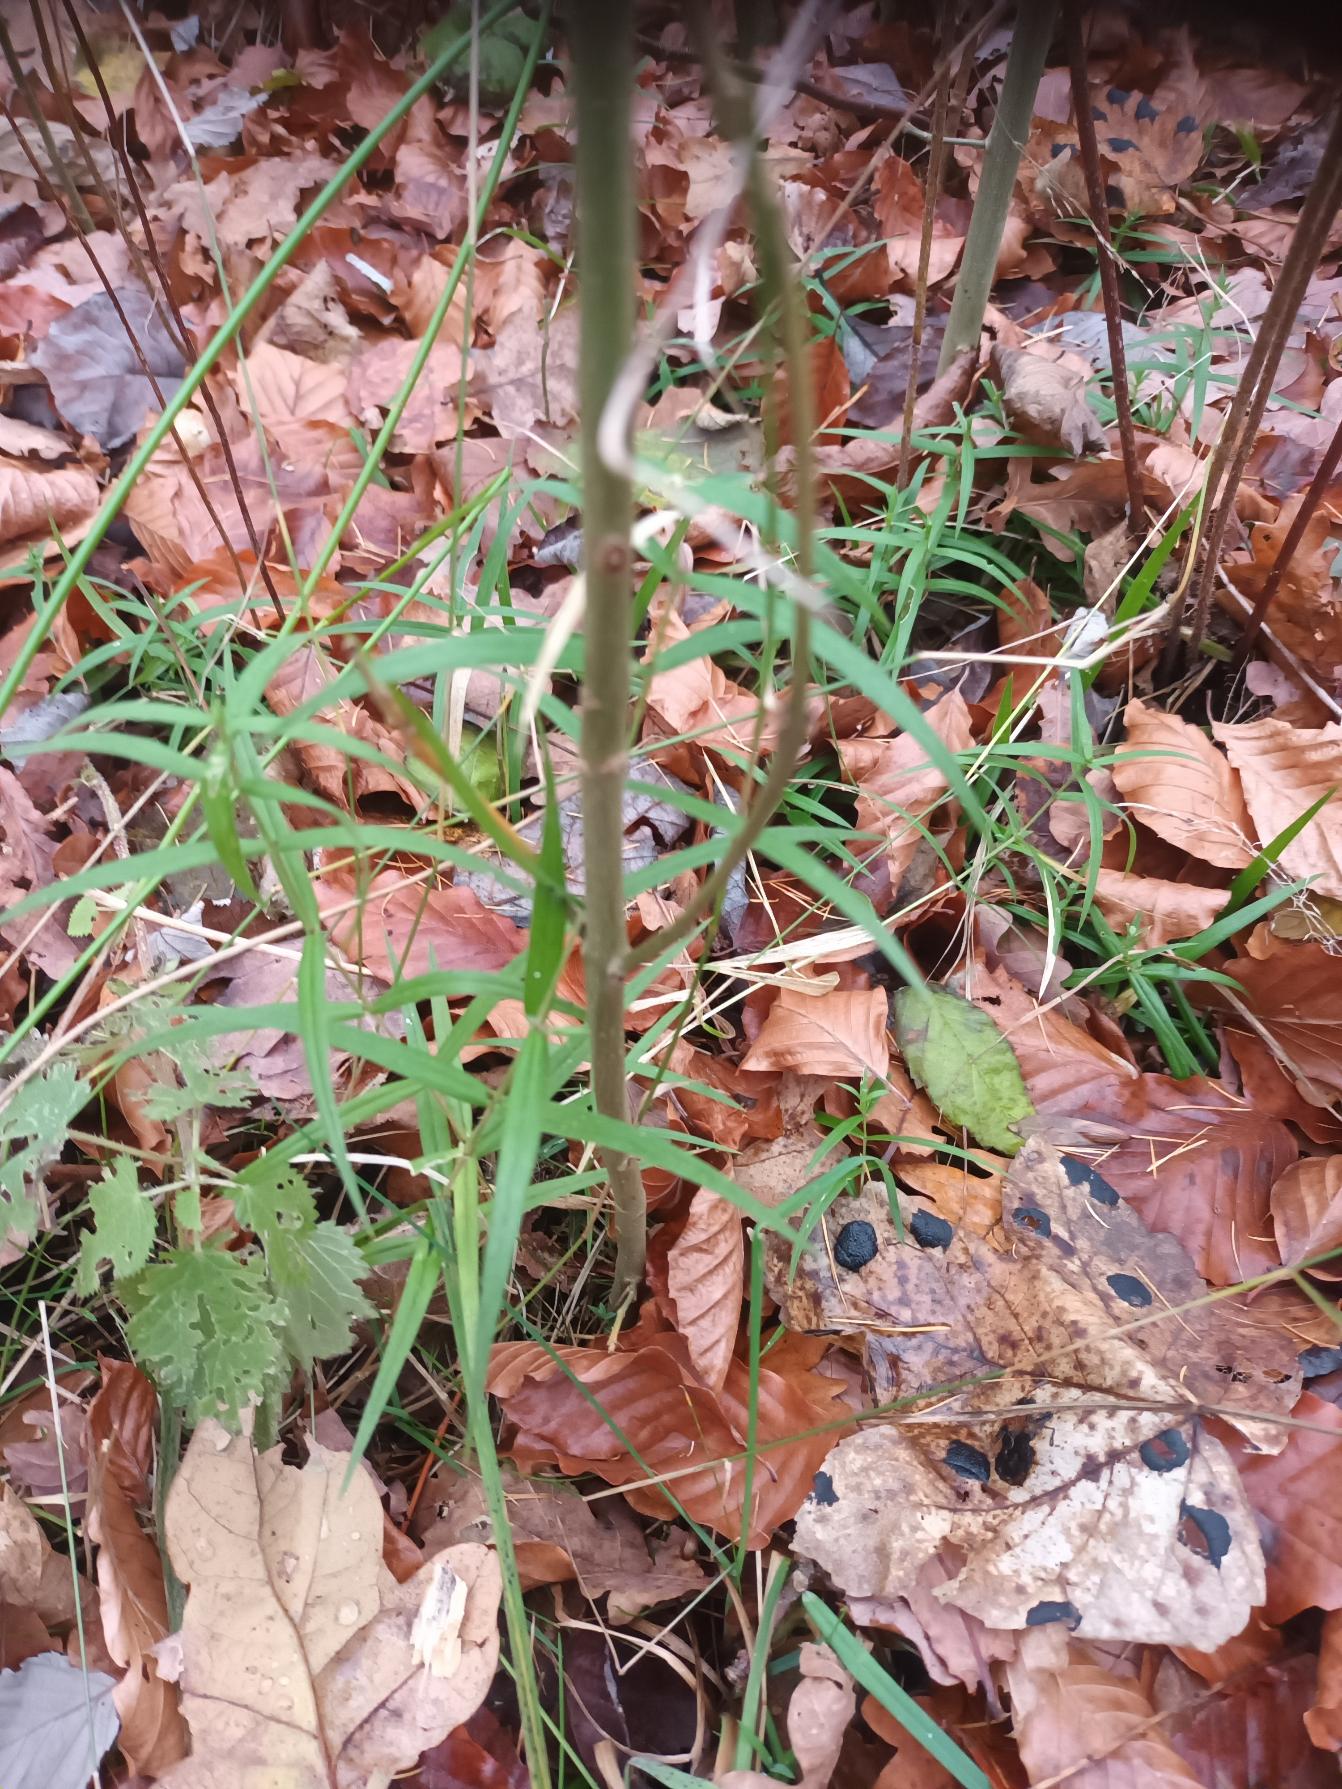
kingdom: Plantae
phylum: Tracheophyta
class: Magnoliopsida
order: Caryophyllales
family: Caryophyllaceae
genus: Rabelera
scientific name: Rabelera holostea
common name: Stor fladstjerne
